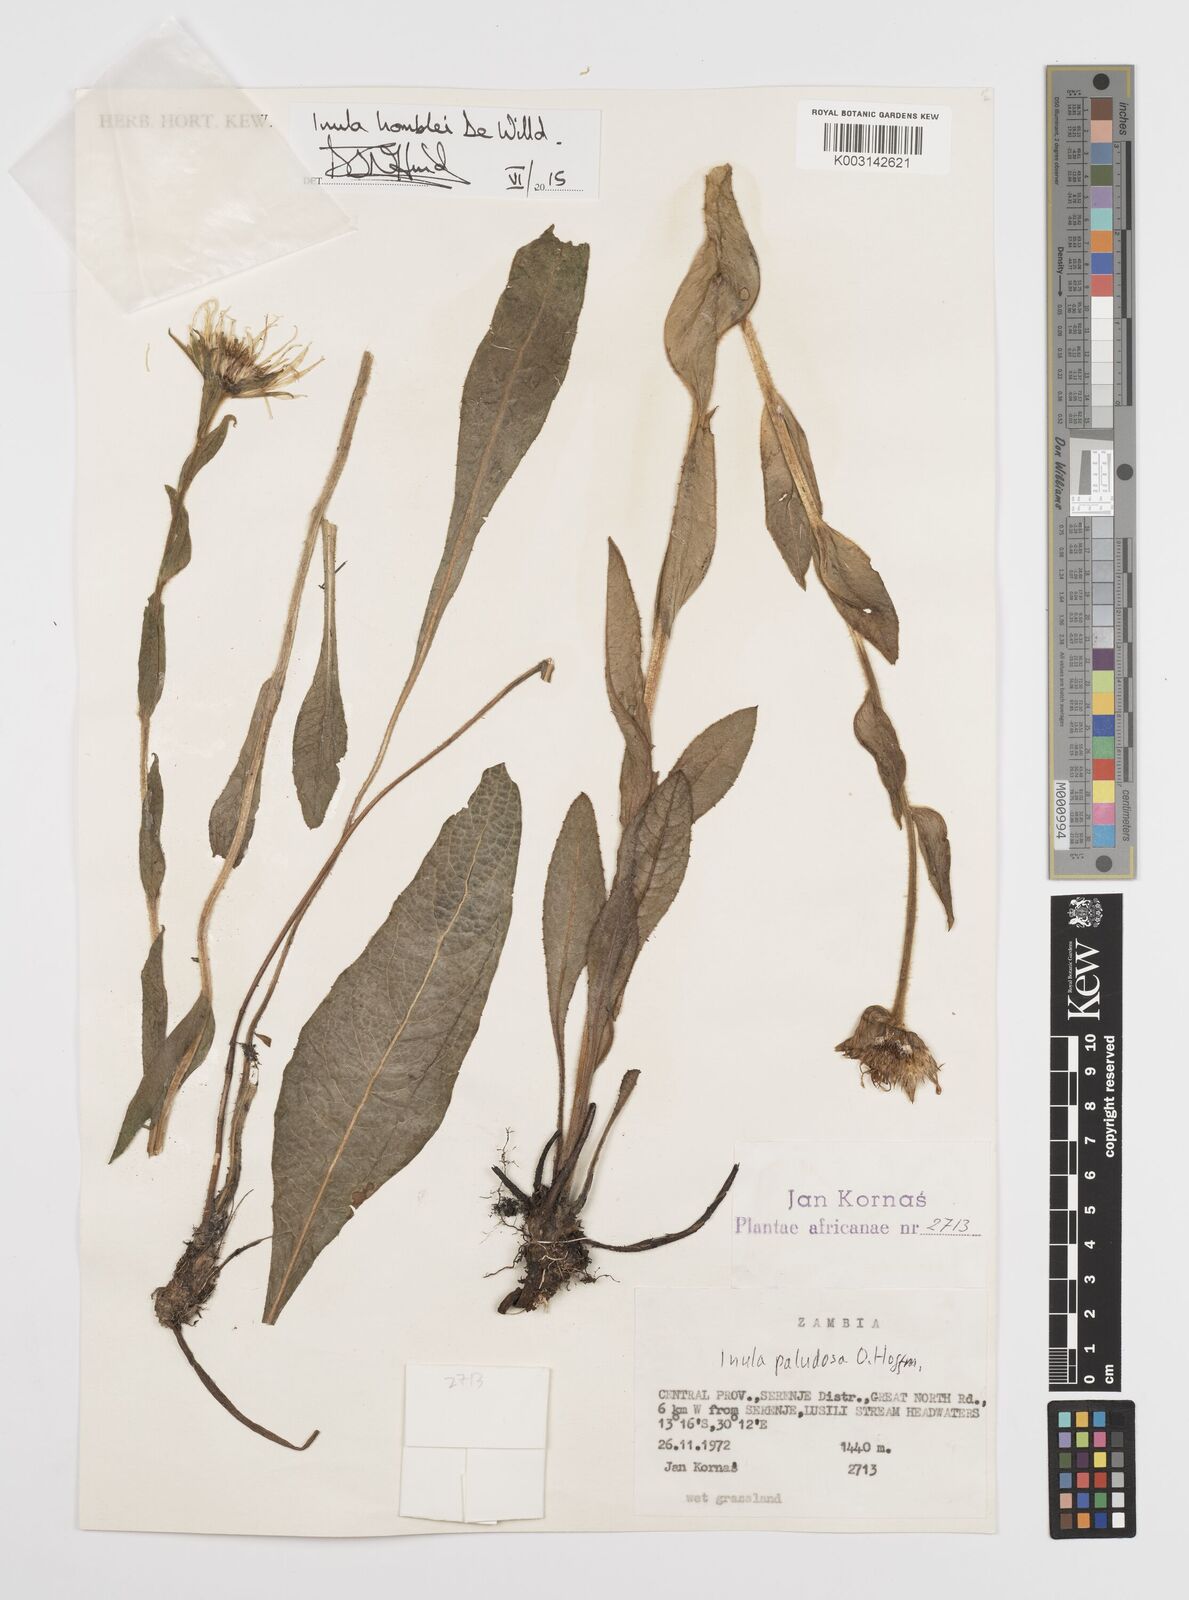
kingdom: Plantae
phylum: Tracheophyta
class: Magnoliopsida
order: Asterales
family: Asteraceae
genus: Inula
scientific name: Inula paludosa
